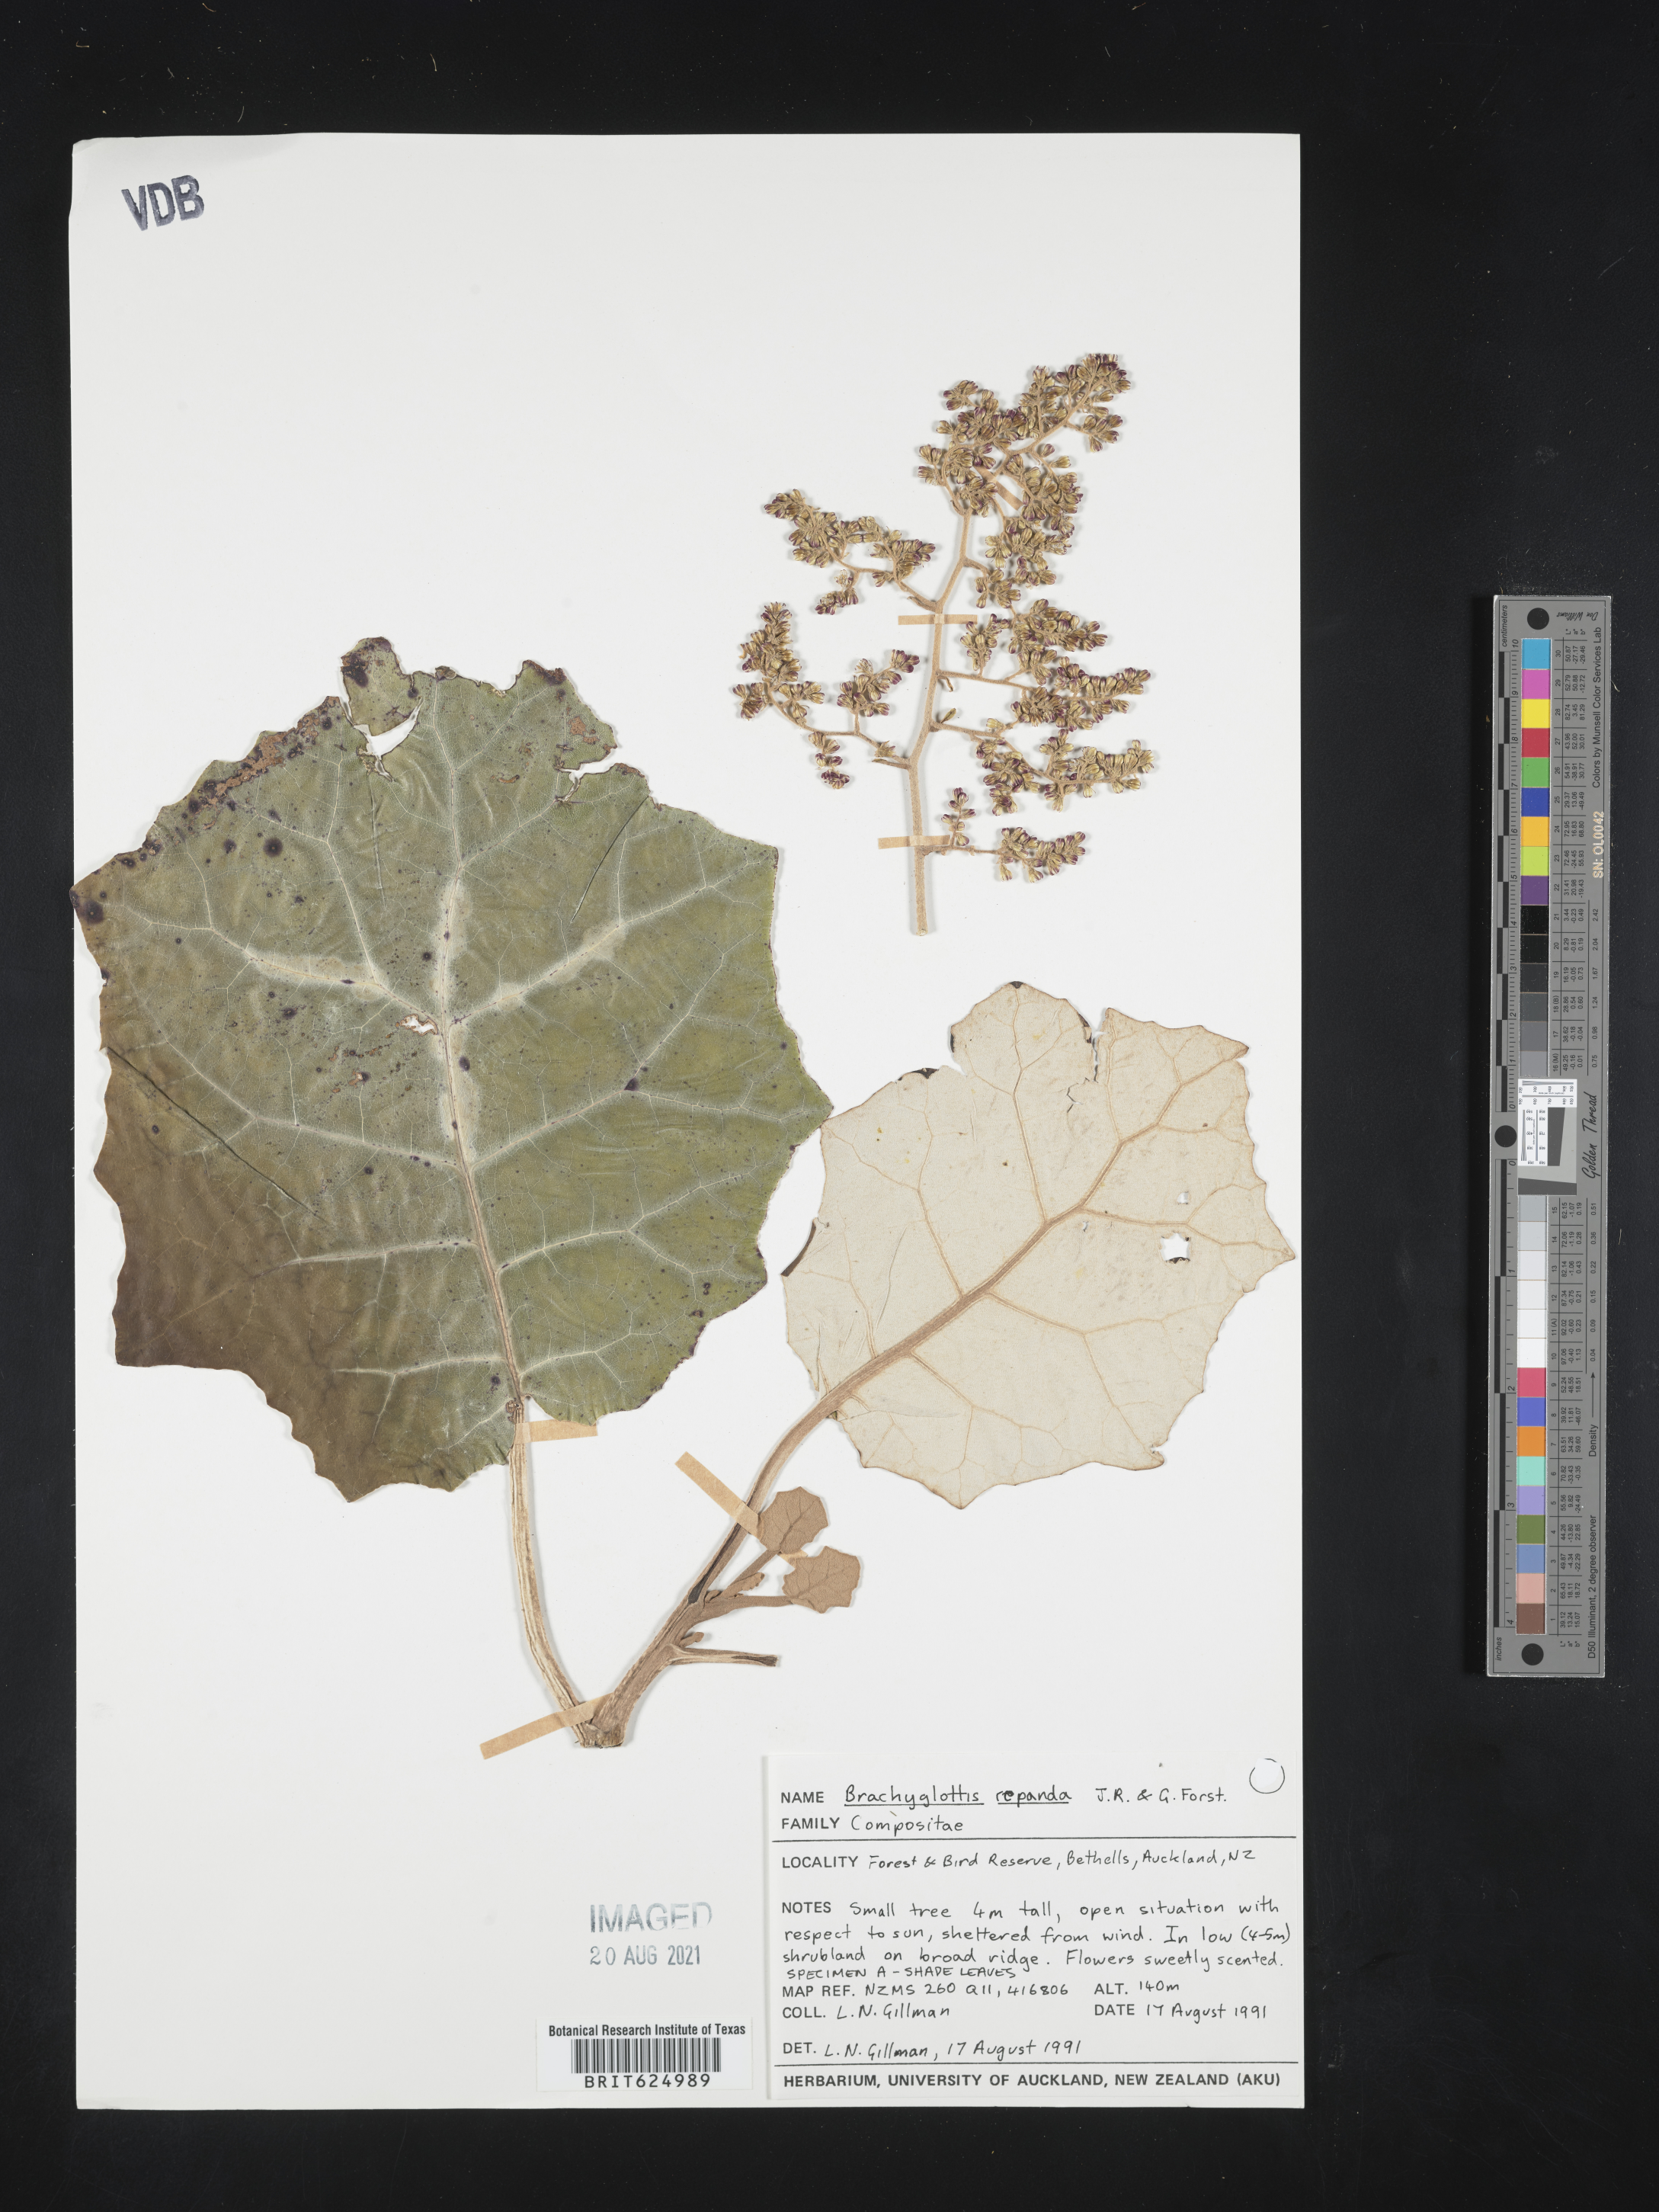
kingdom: Plantae
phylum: Tracheophyta
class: Magnoliopsida
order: Asterales
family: Asteraceae
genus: Brachyglottis
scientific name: Brachyglottis repanda
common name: Hedge ragwort
